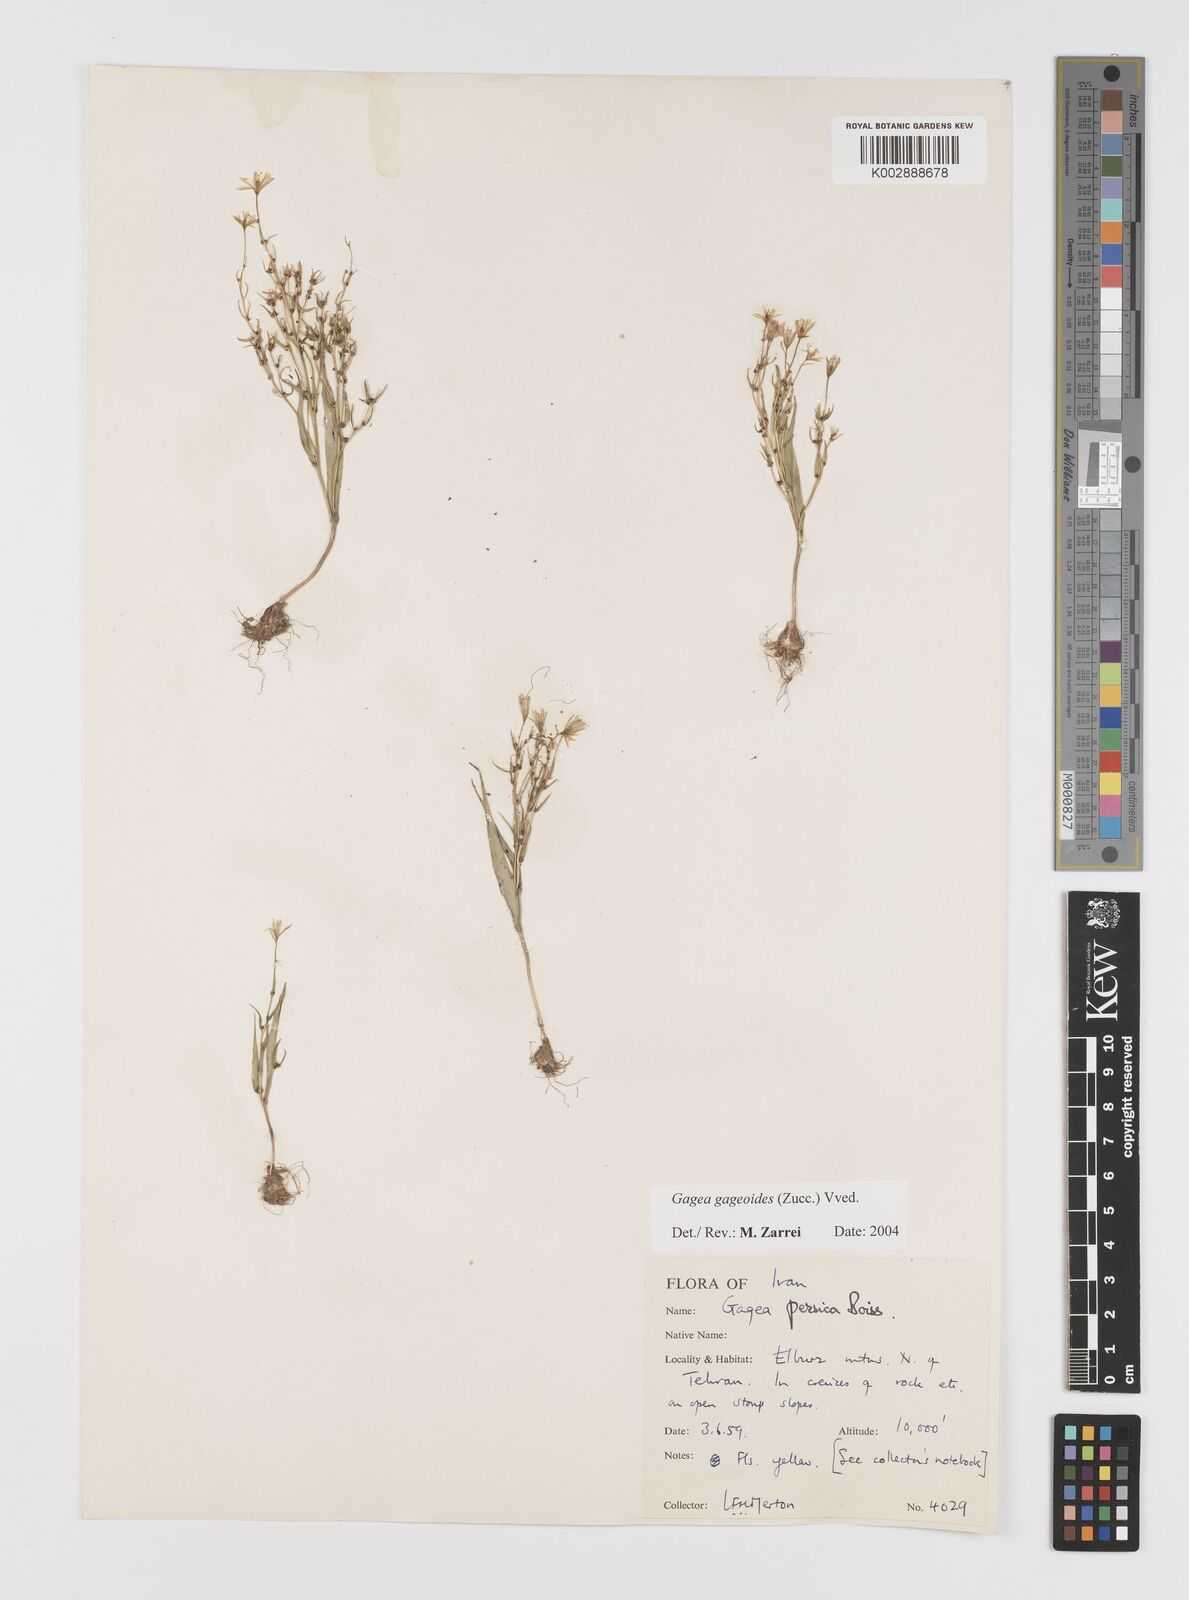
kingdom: Plantae
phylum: Tracheophyta
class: Liliopsida
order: Liliales
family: Liliaceae
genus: Gagea
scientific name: Gagea gageoides
